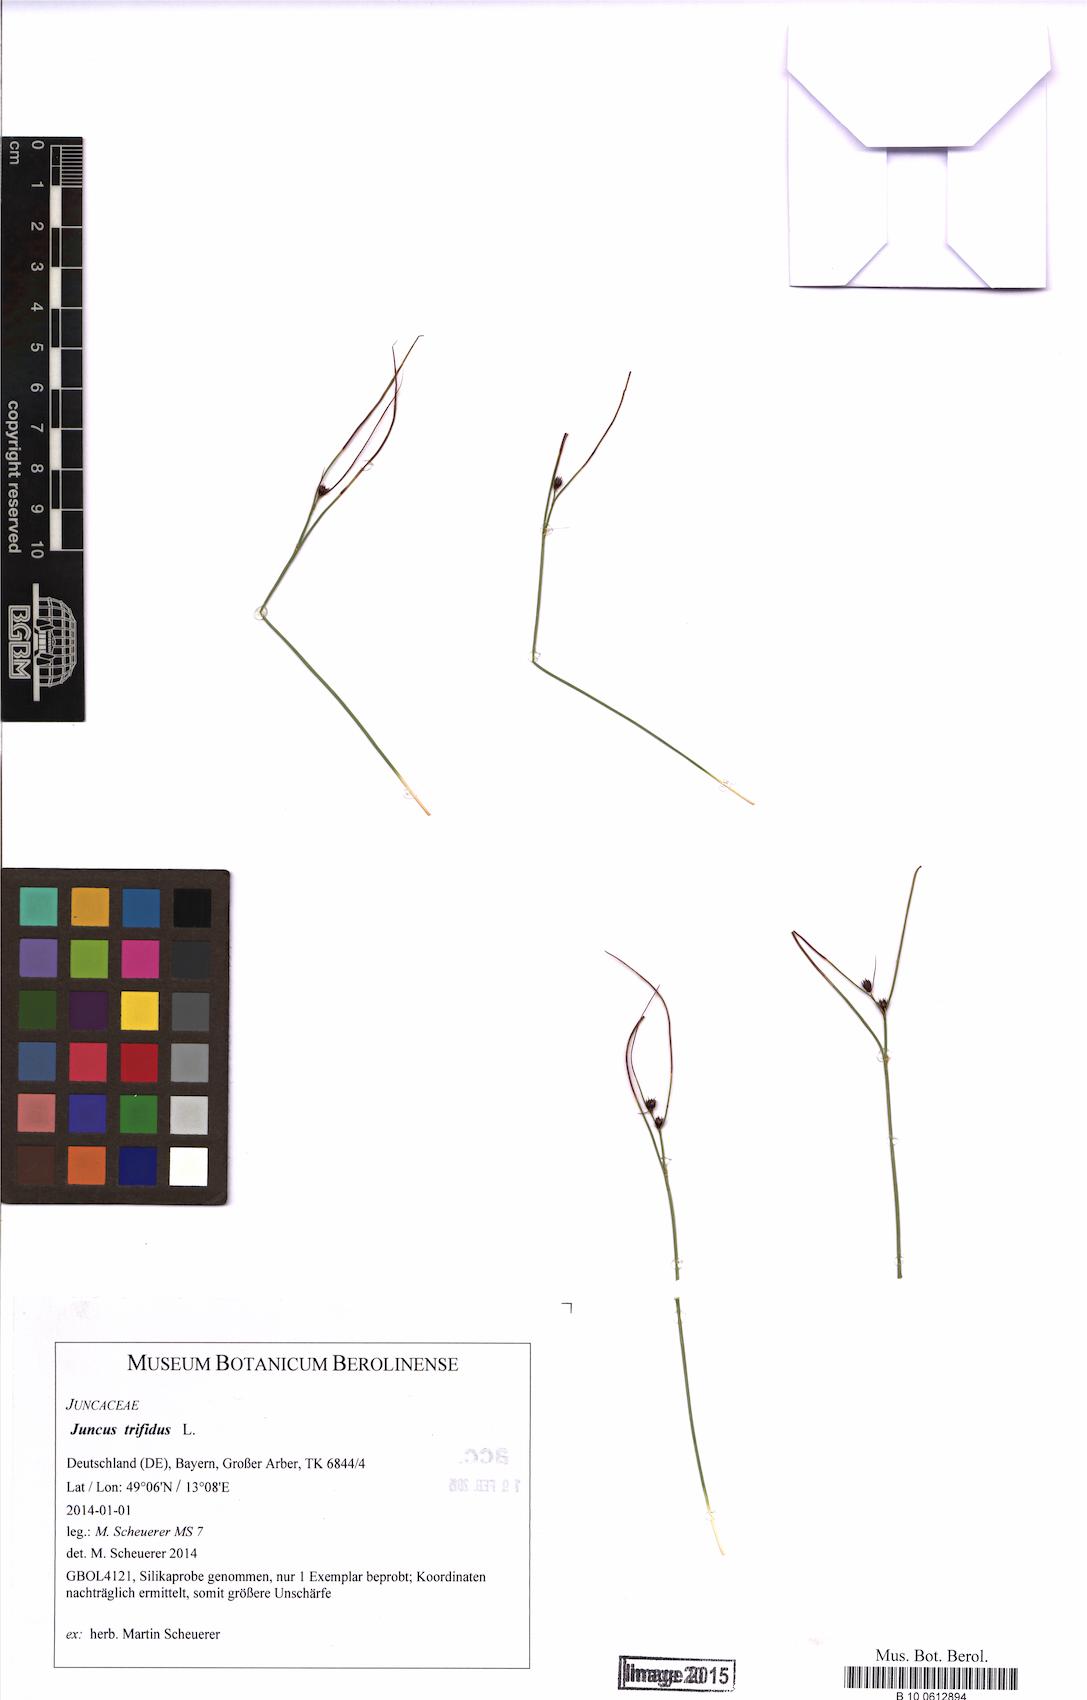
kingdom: Plantae
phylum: Tracheophyta
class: Liliopsida
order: Poales
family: Juncaceae
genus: Oreojuncus
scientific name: Oreojuncus trifidus
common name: Highland rush
